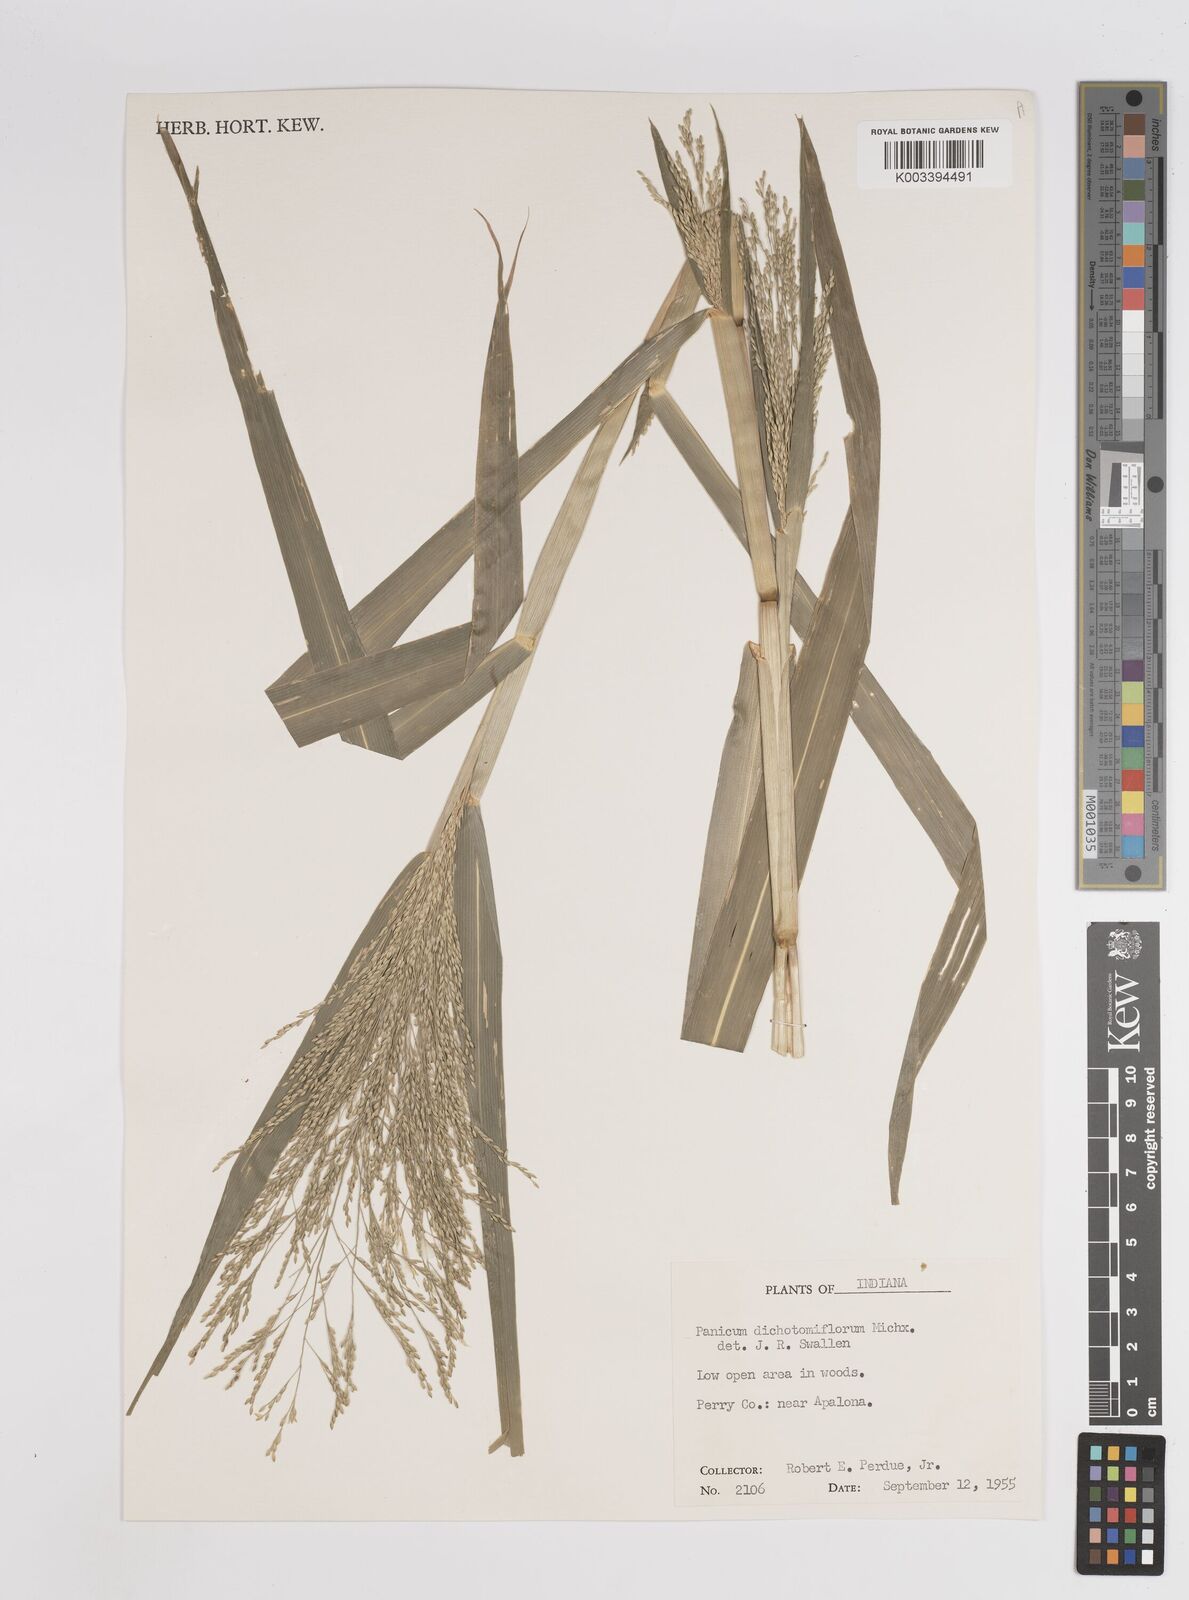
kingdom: Plantae
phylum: Tracheophyta
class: Liliopsida
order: Poales
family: Poaceae
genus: Panicum
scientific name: Panicum dichotomiflorum
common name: Autumn millet
